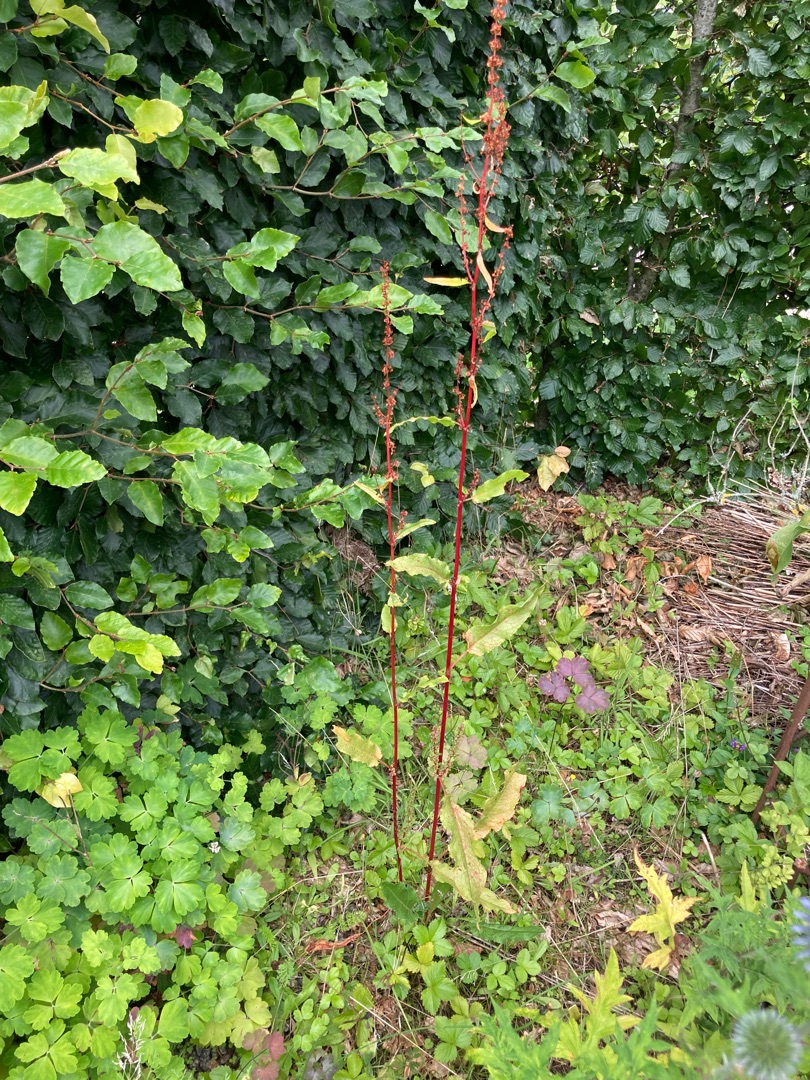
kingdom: Plantae
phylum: Tracheophyta
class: Magnoliopsida
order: Caryophyllales
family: Polygonaceae
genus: Rumex
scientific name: Rumex obtusifolius
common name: Butbladet skræppe
